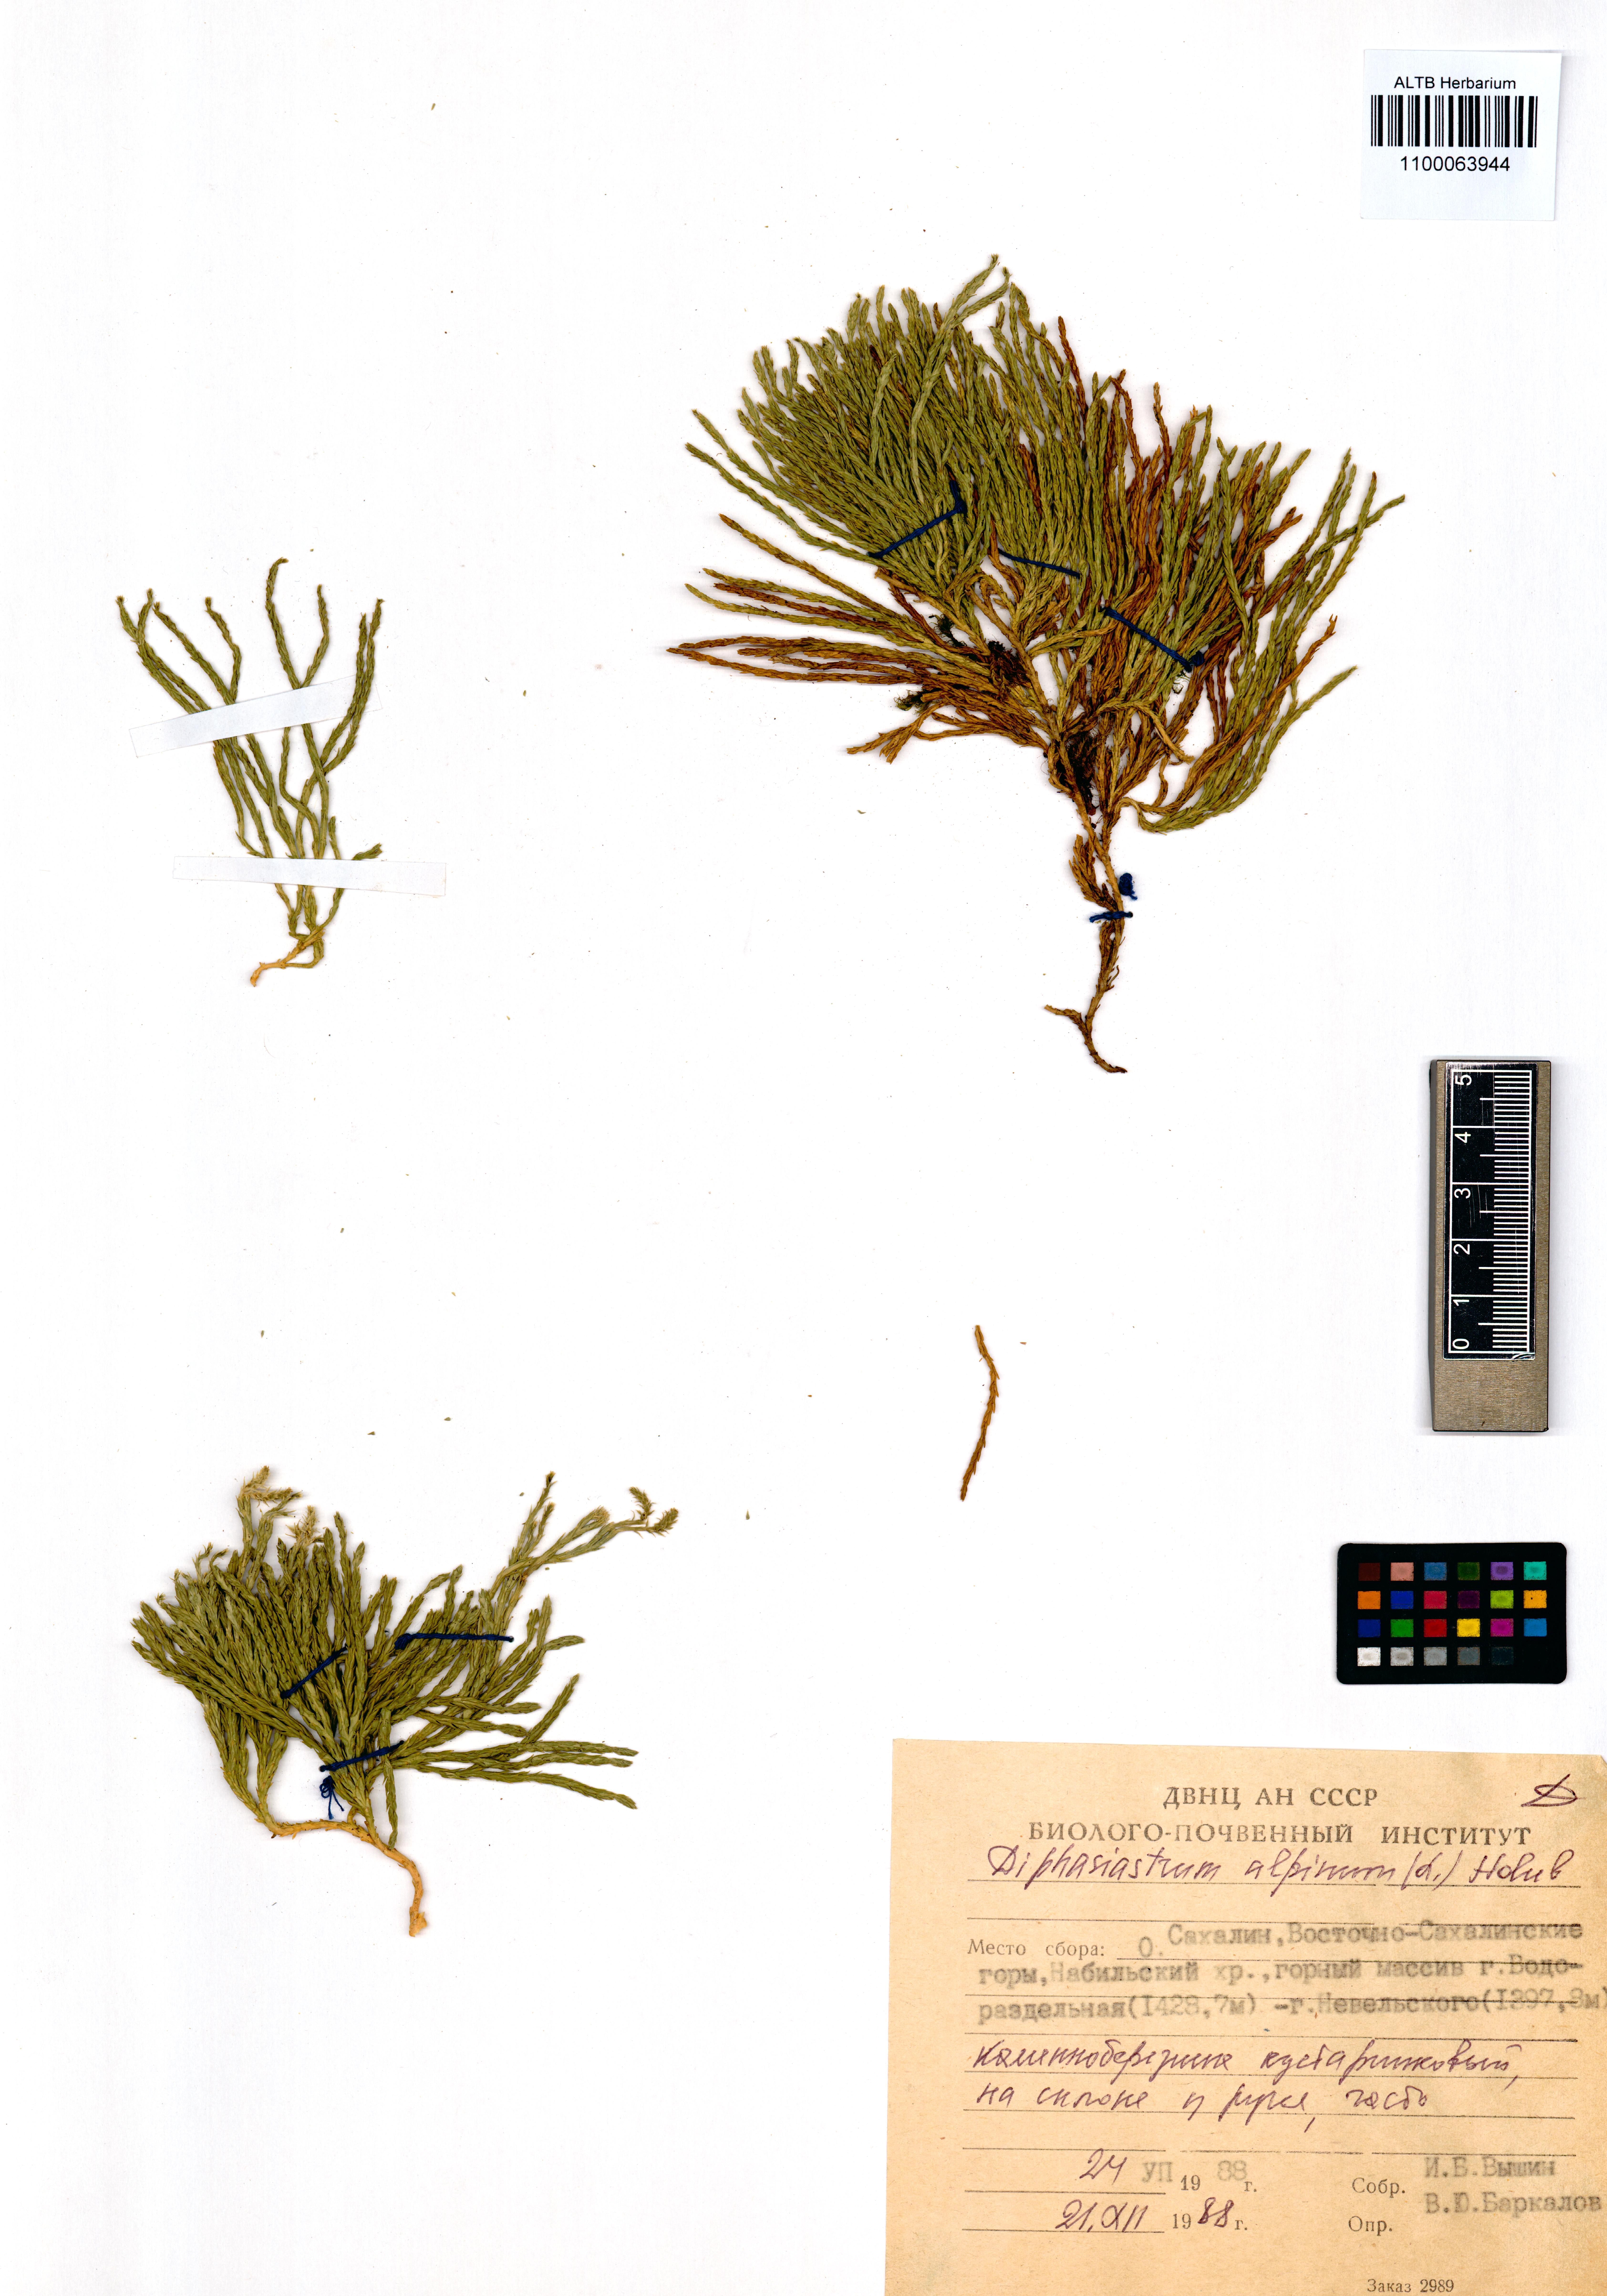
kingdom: Plantae
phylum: Tracheophyta
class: Lycopodiopsida
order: Lycopodiales
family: Lycopodiaceae
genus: Diphasiastrum
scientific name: Diphasiastrum alpinum
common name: Alpine clubmoss
